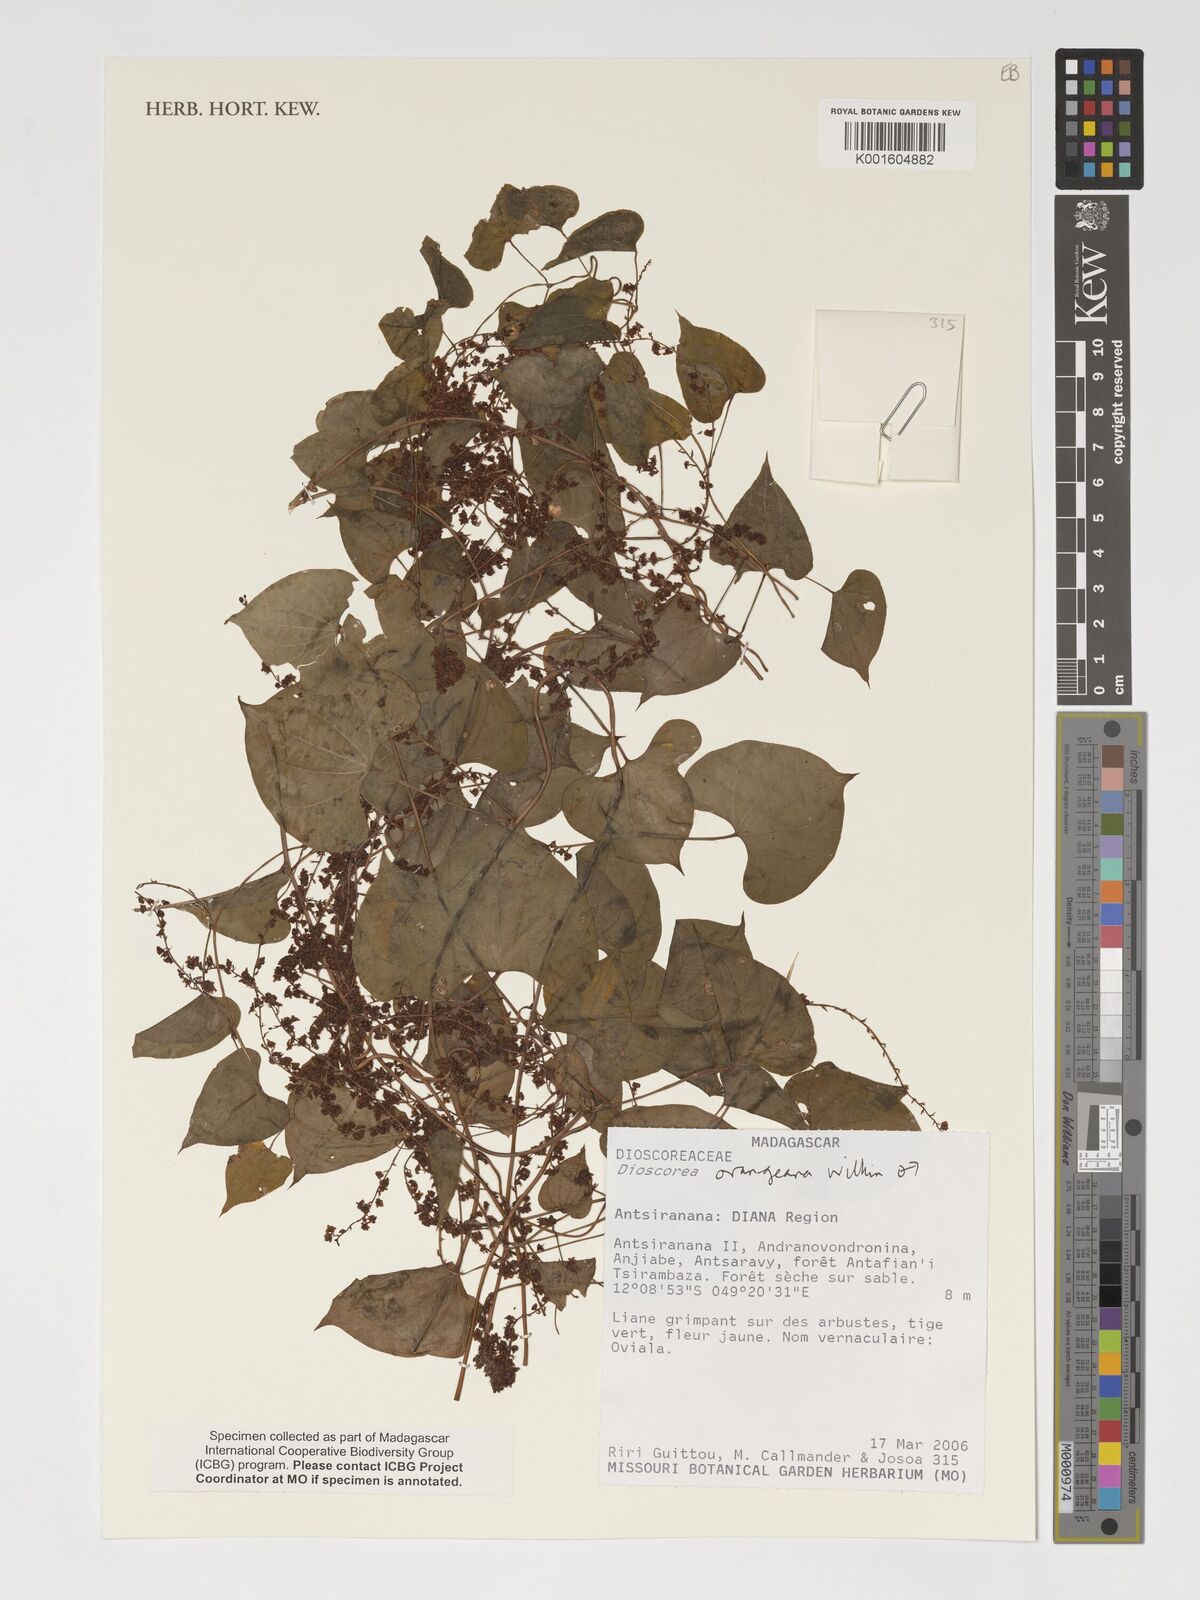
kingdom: Plantae
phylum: Tracheophyta
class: Liliopsida
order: Dioscoreales
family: Dioscoreaceae
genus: Dioscorea
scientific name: Dioscorea orangeana
